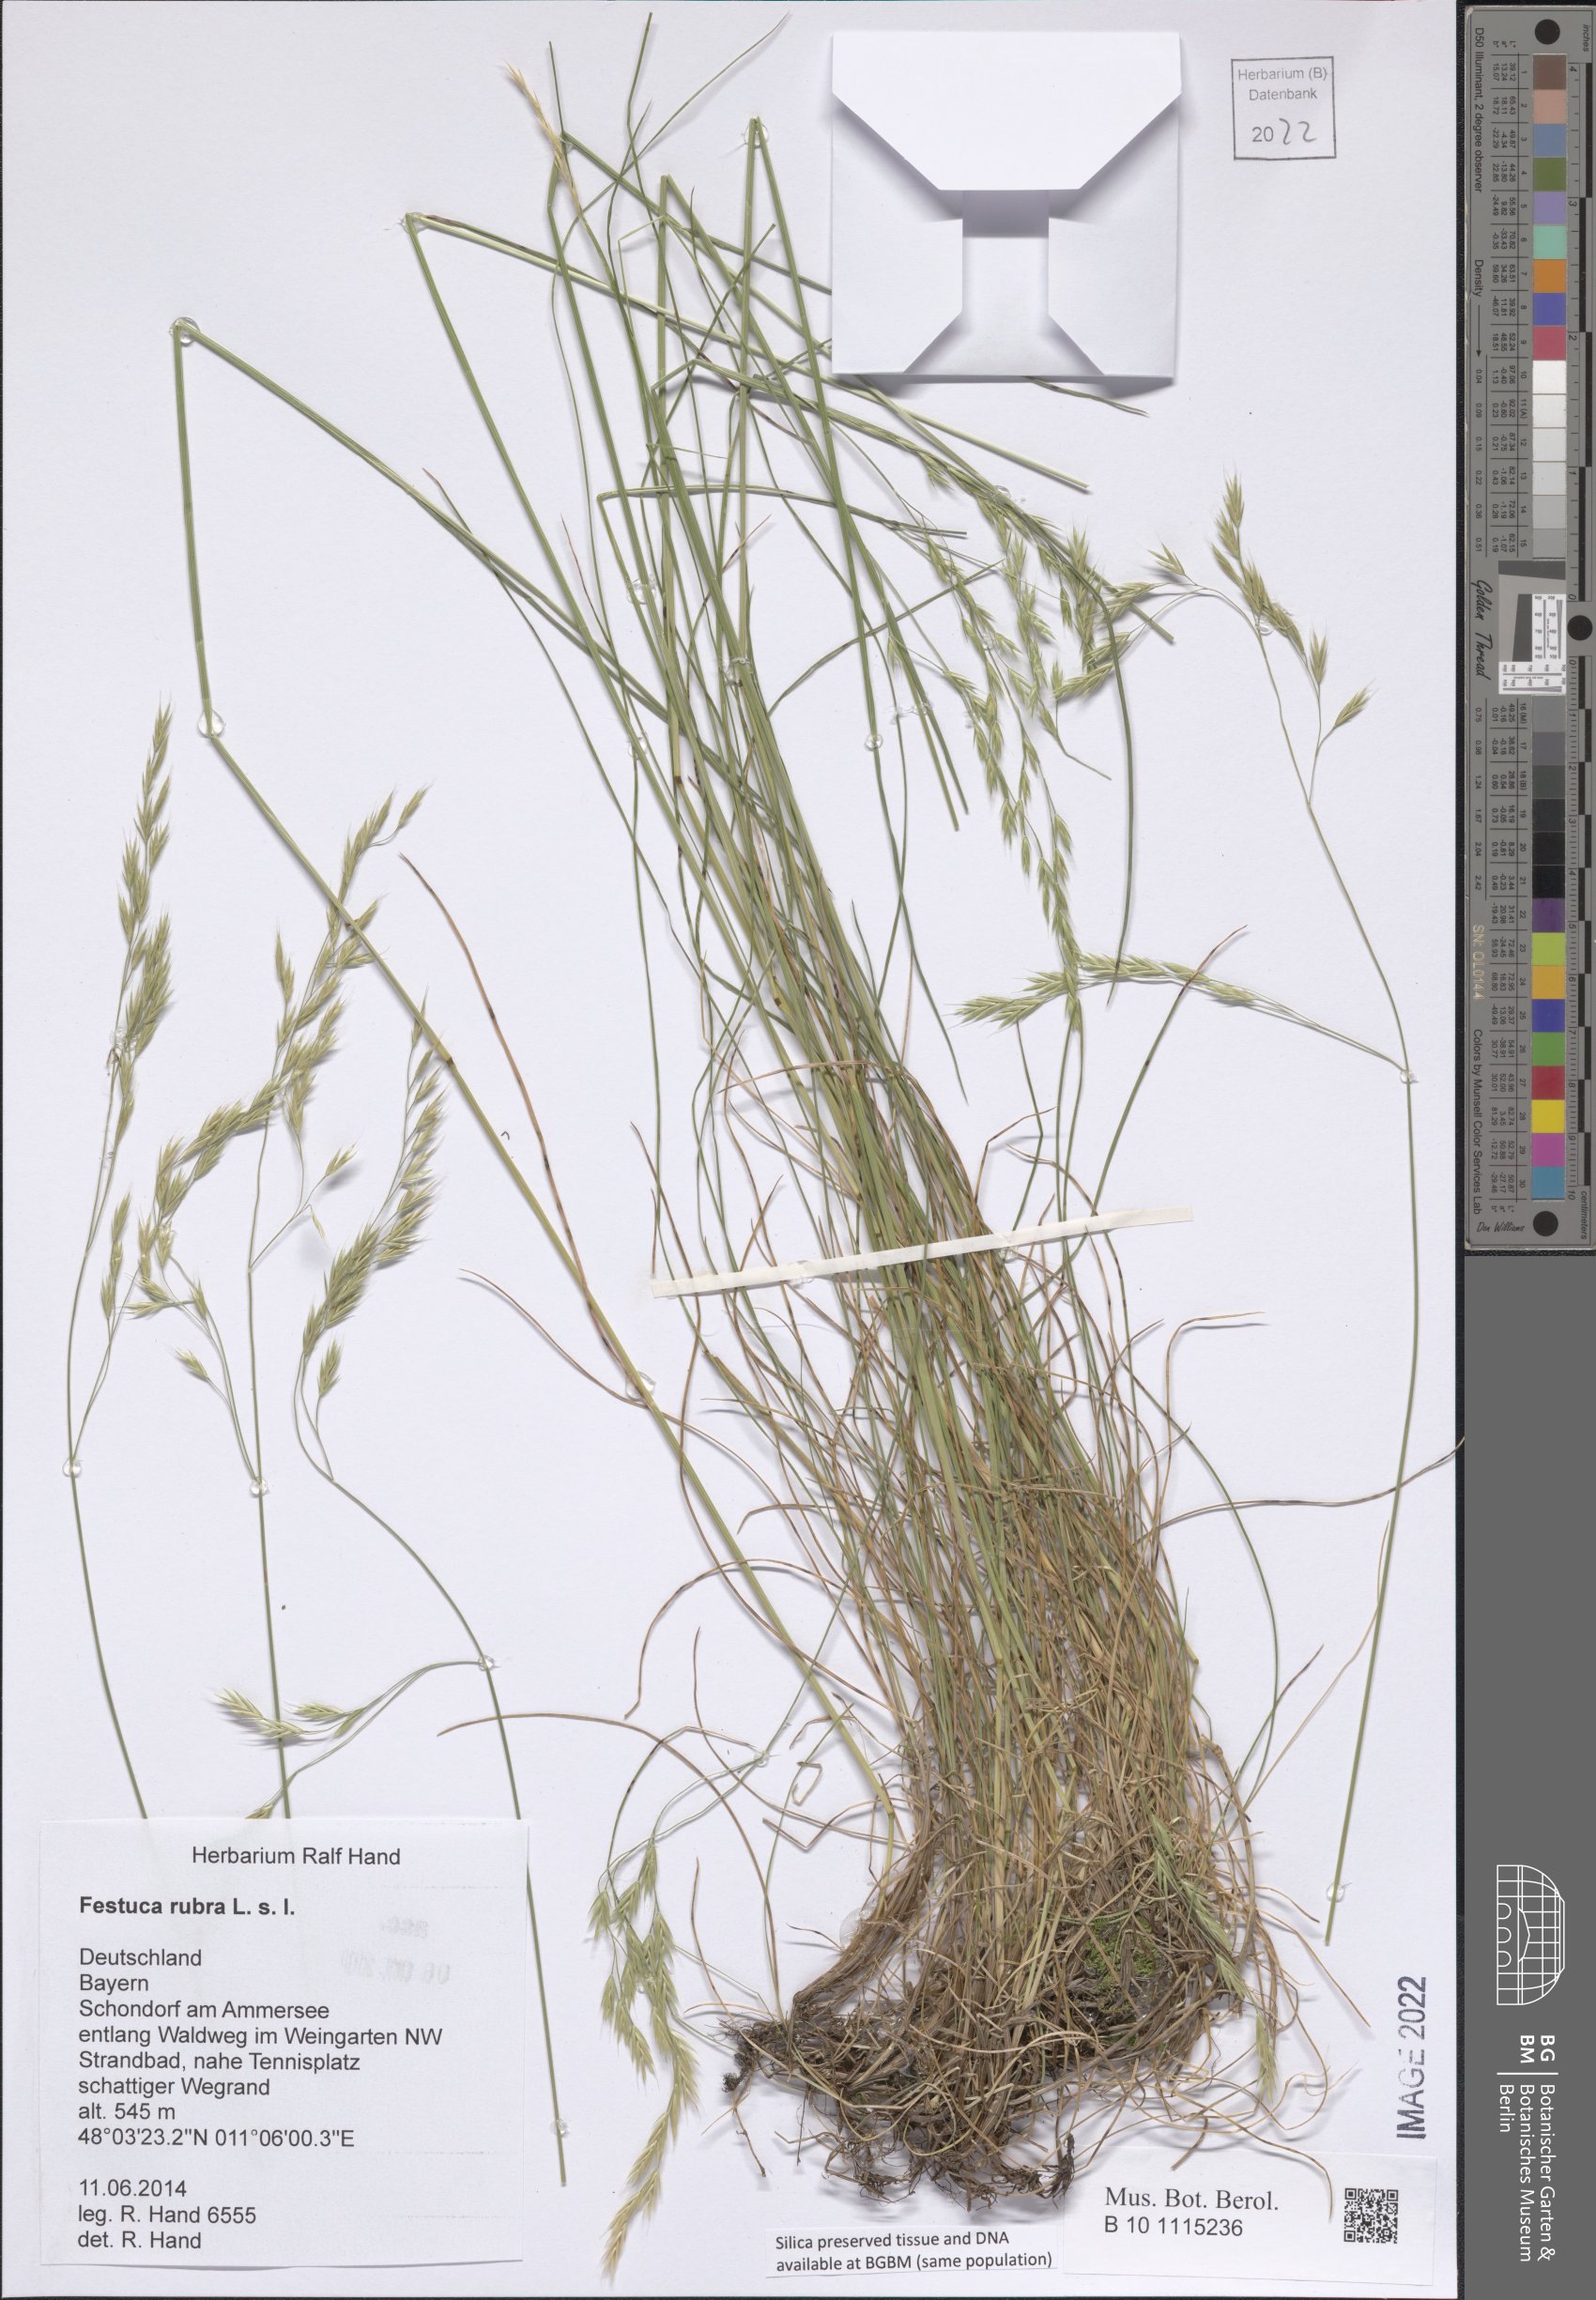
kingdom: Plantae
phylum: Tracheophyta
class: Liliopsida
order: Poales
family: Poaceae
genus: Festuca
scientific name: Festuca rubra
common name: Red fescue
